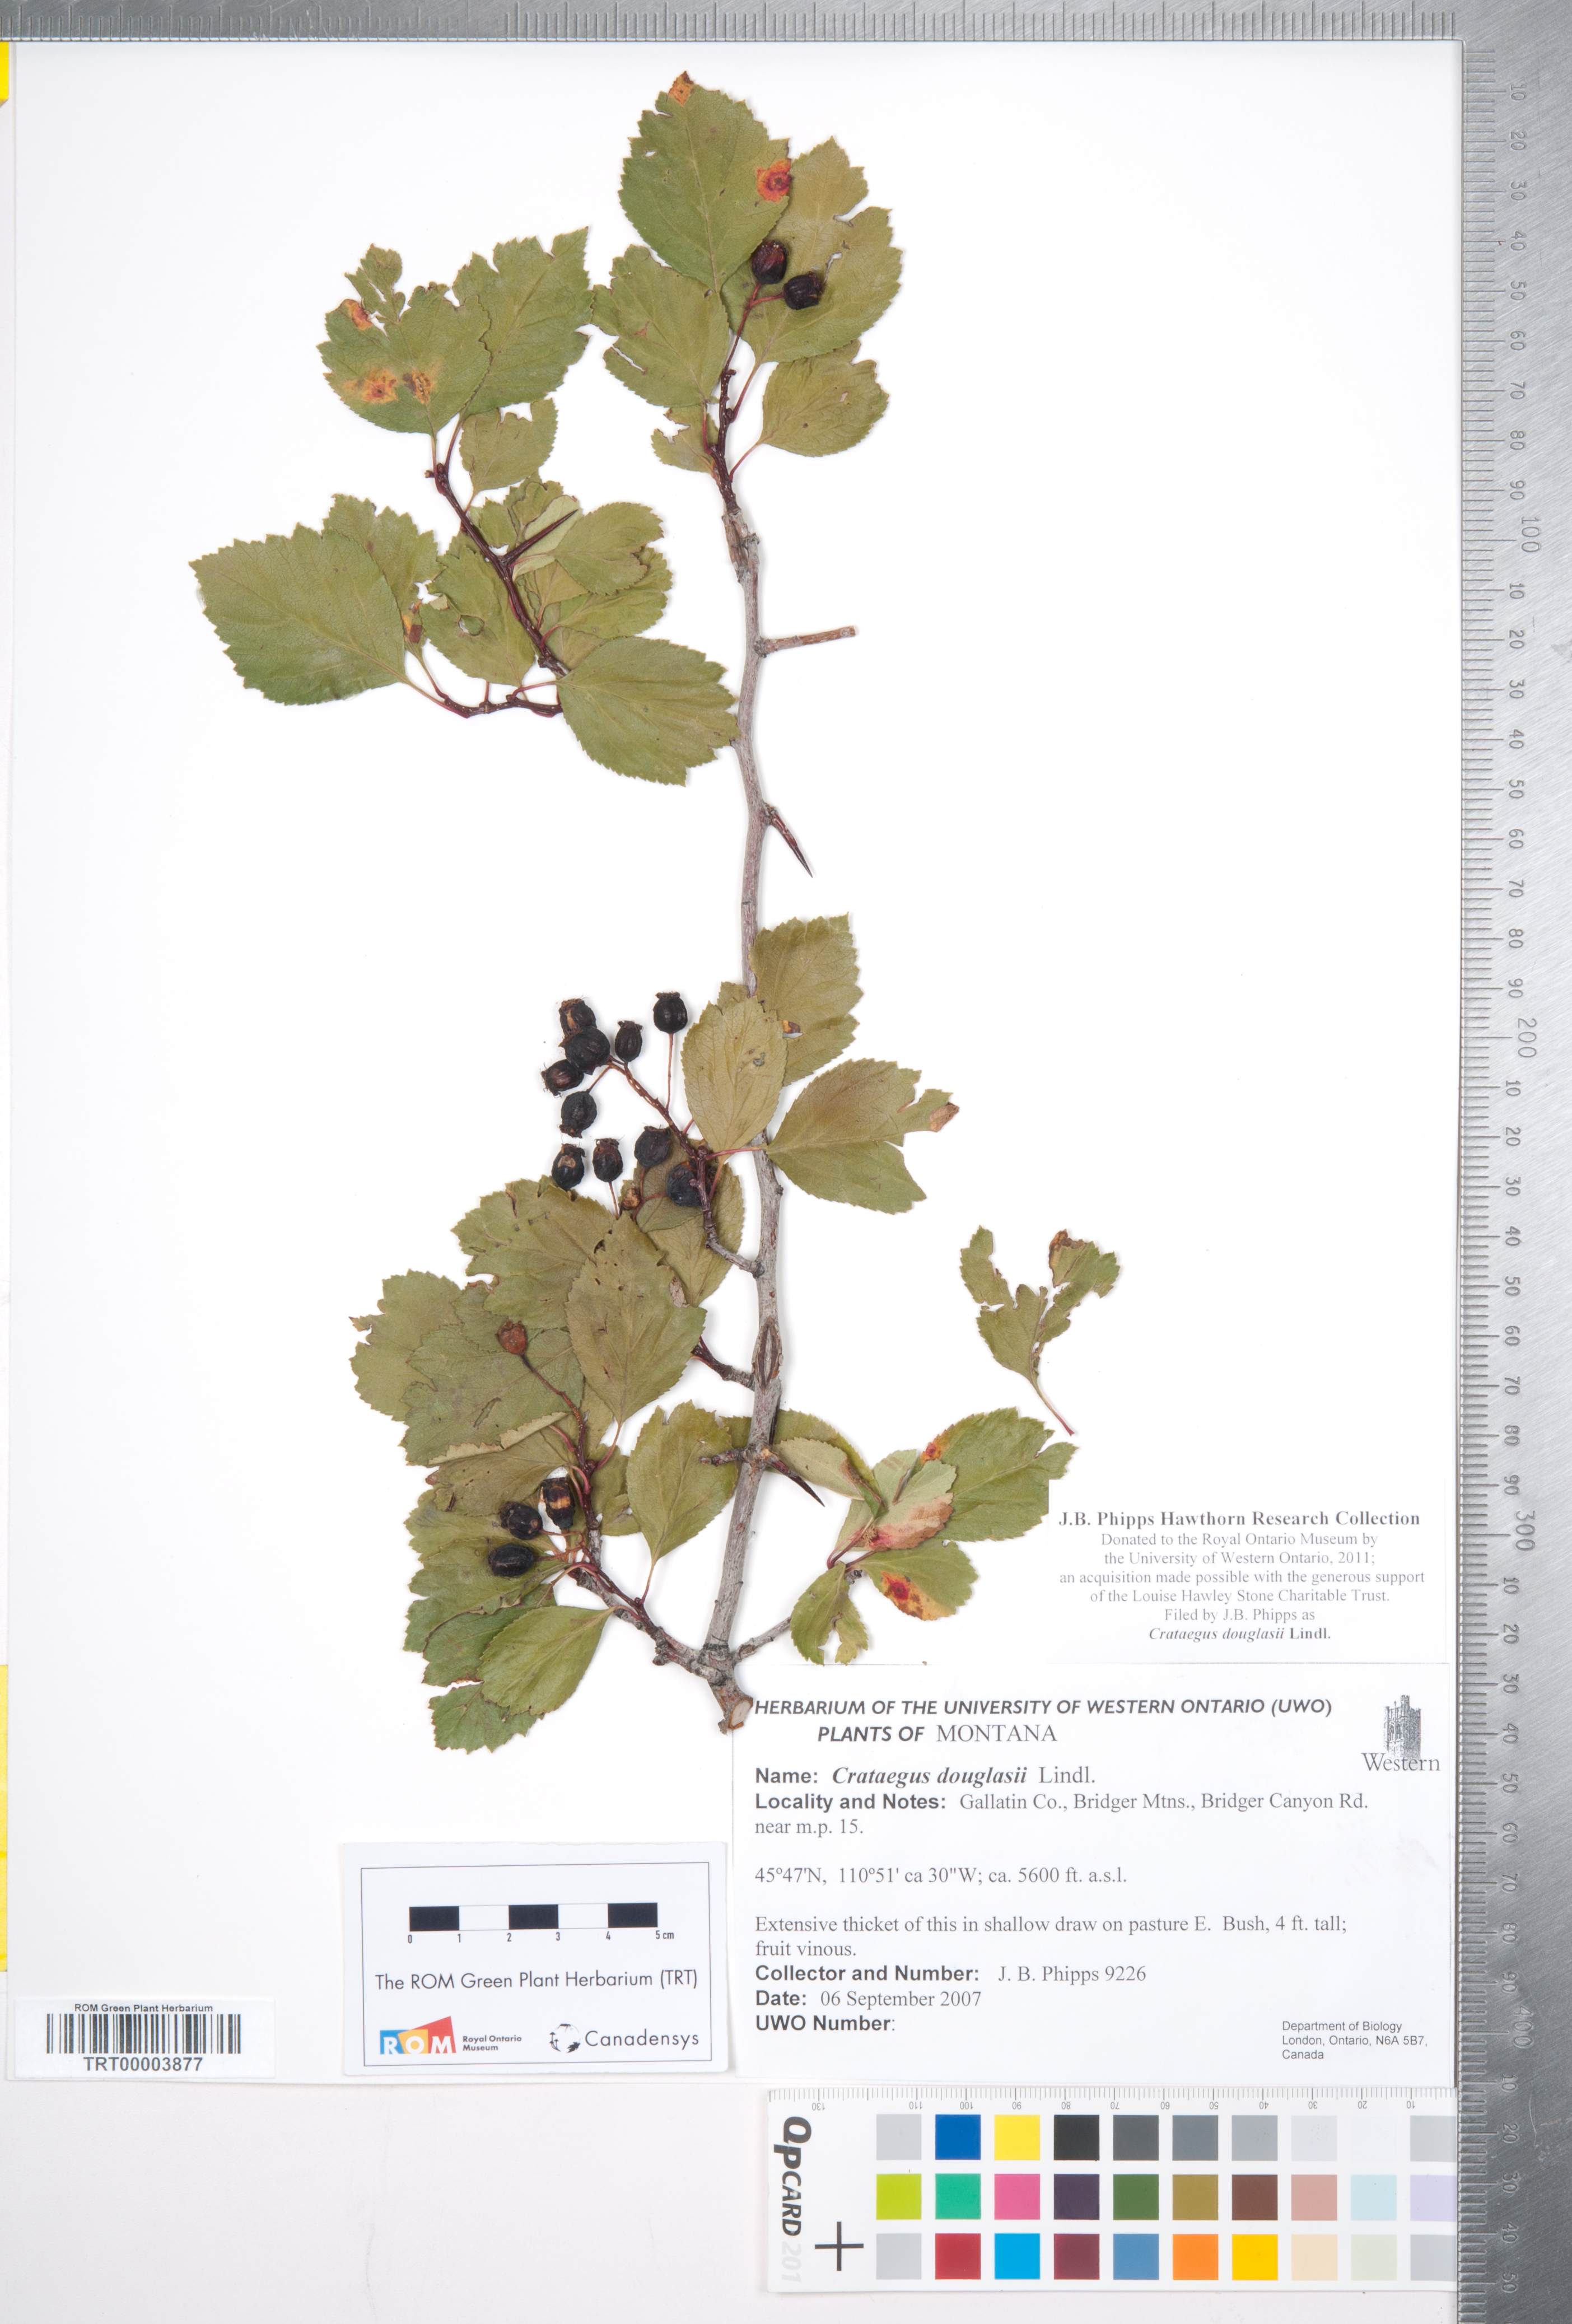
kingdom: Plantae
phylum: Tracheophyta
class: Magnoliopsida
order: Rosales
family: Rosaceae
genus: Crataegus
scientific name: Crataegus douglasii
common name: Black hawthorn
